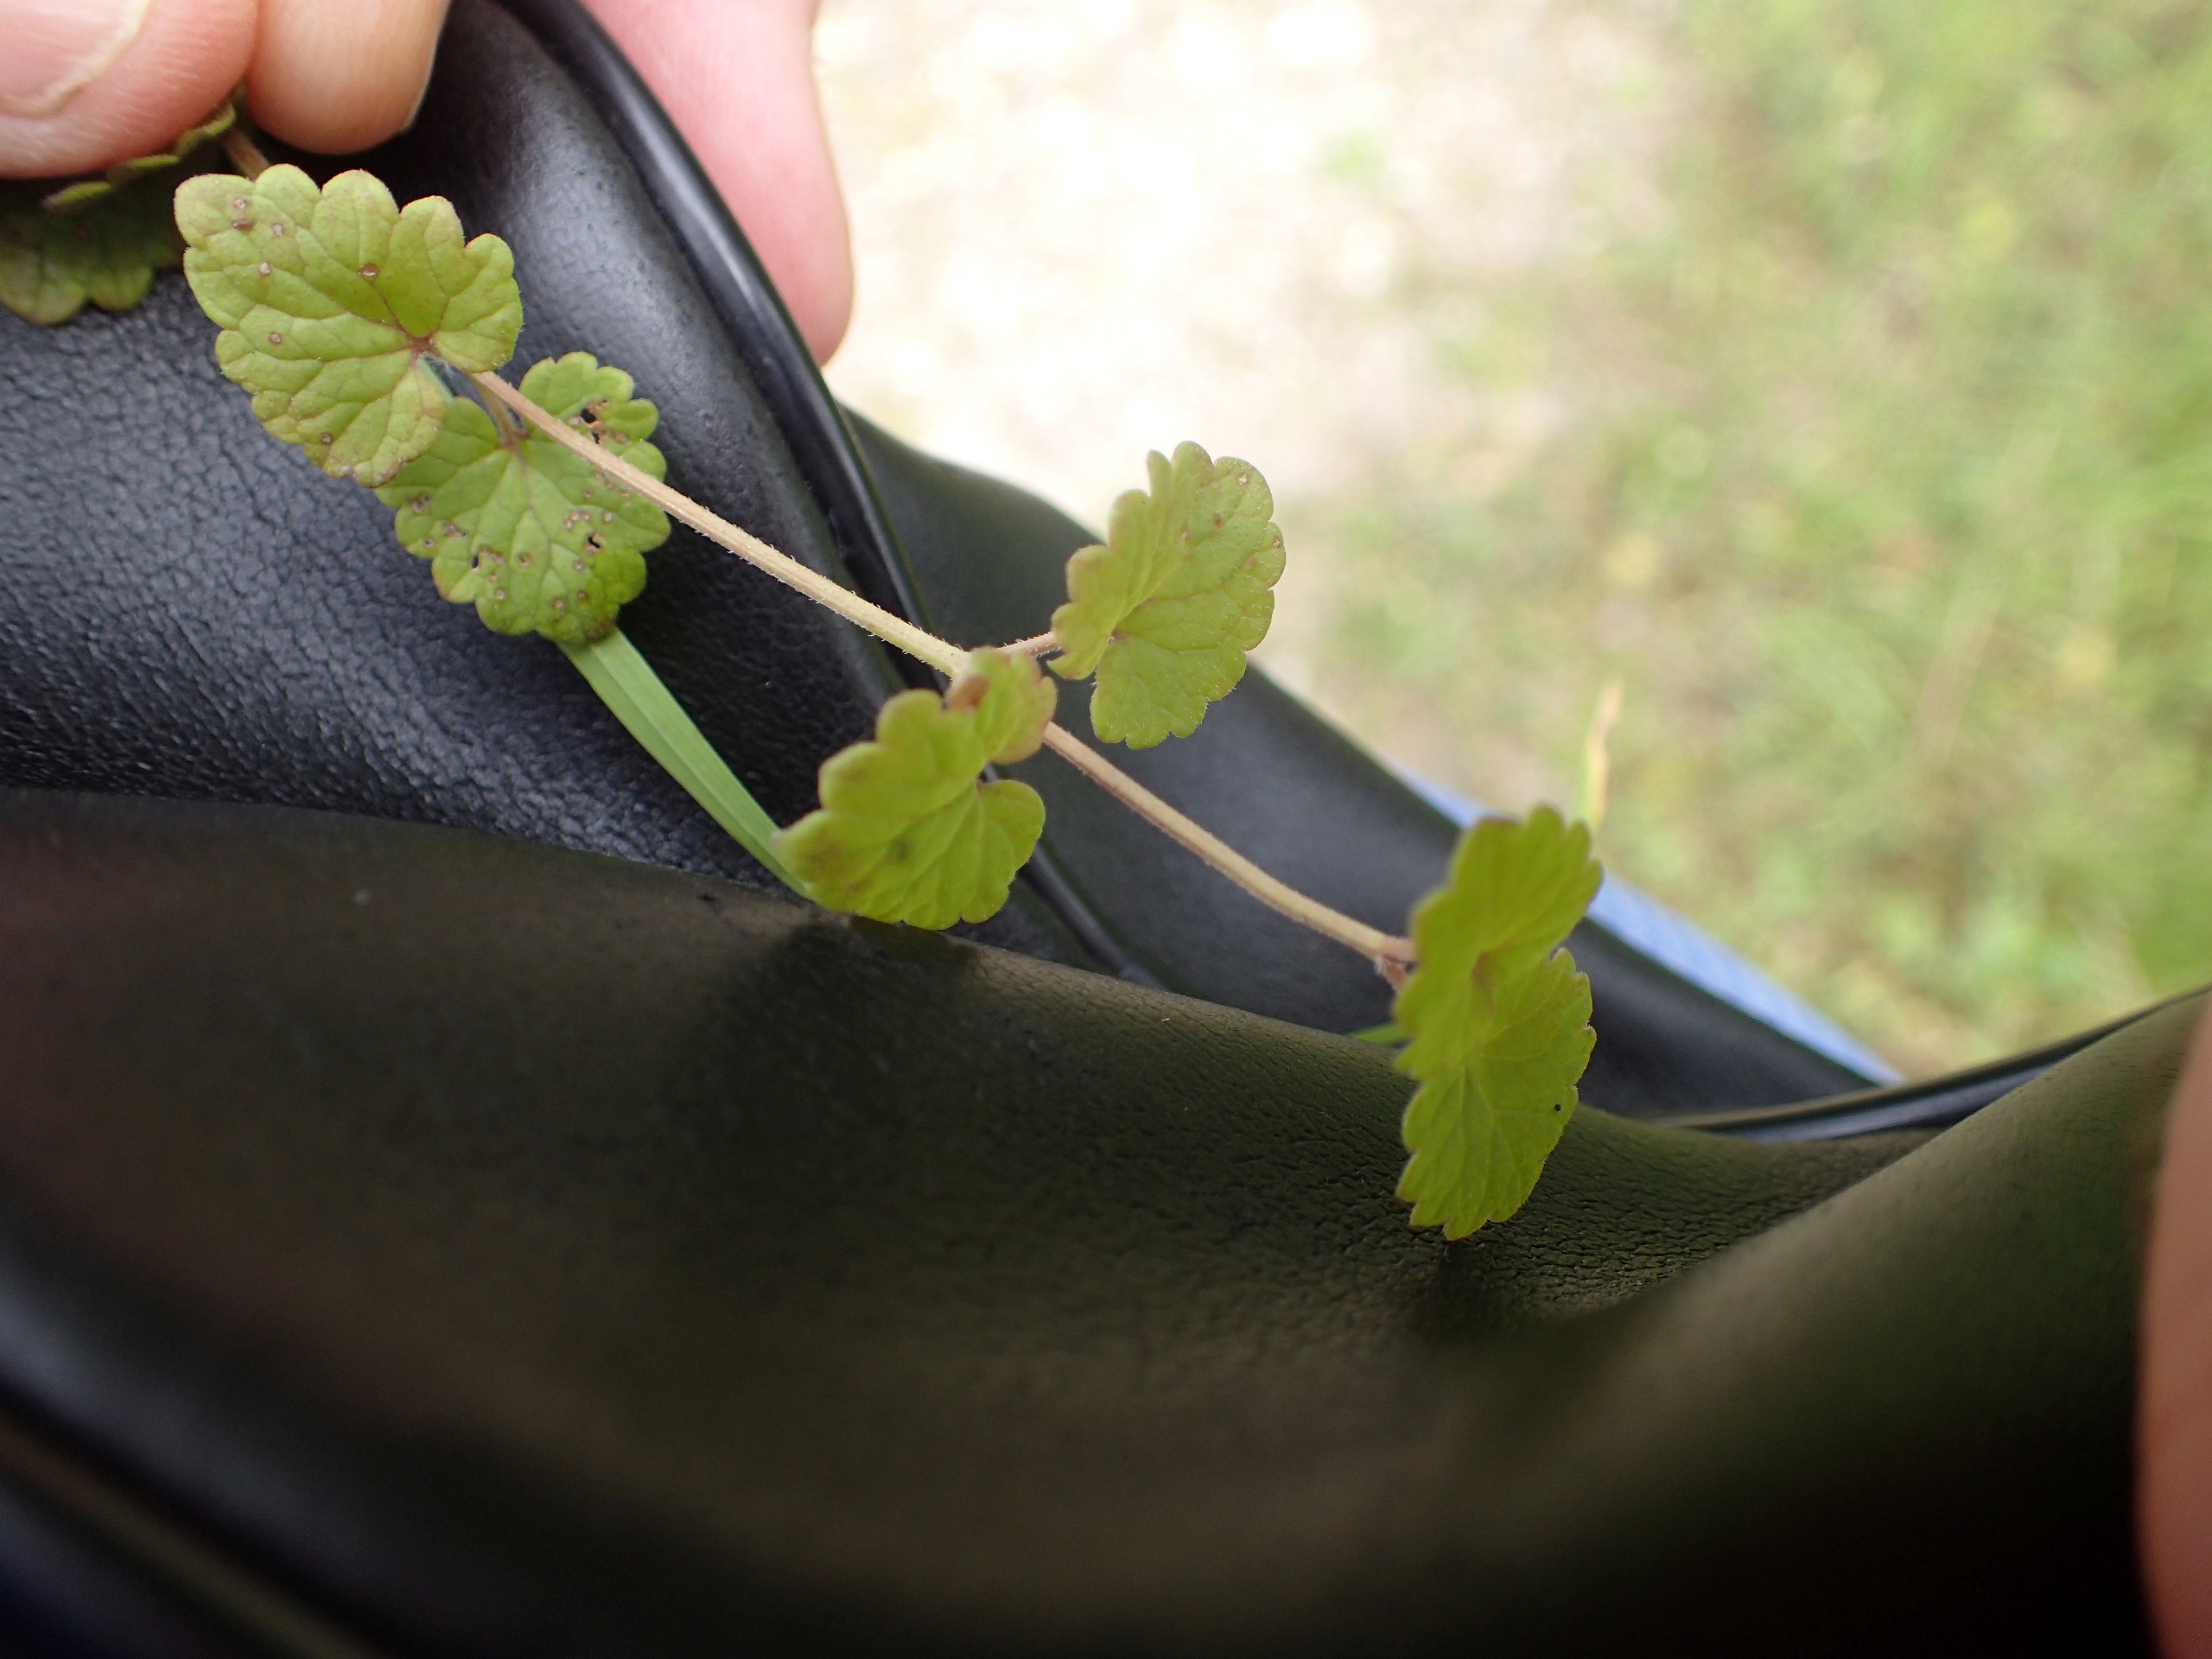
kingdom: Plantae
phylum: Tracheophyta
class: Magnoliopsida
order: Lamiales
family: Lamiaceae
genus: Glechoma
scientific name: Glechoma hederacea
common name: Korsknap
